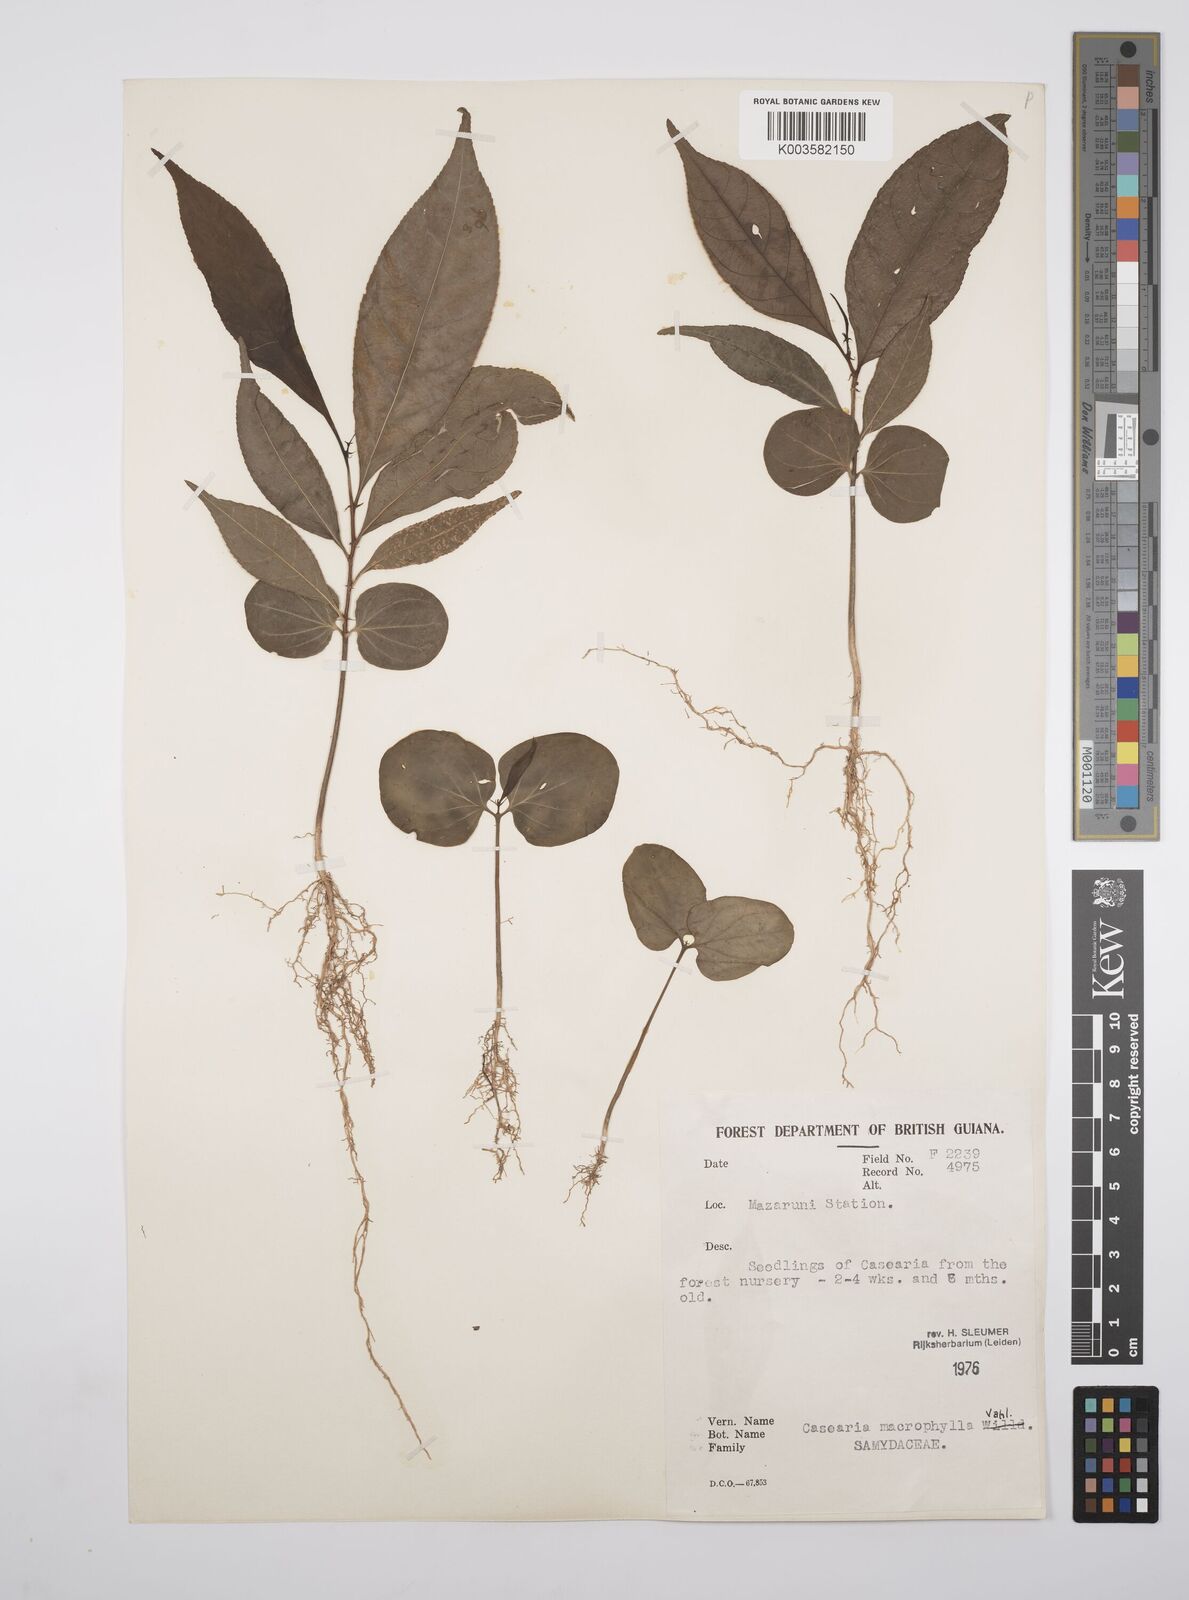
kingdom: Plantae
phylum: Tracheophyta
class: Magnoliopsida
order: Malpighiales
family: Salicaceae
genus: Casearia
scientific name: Casearia pitumba
